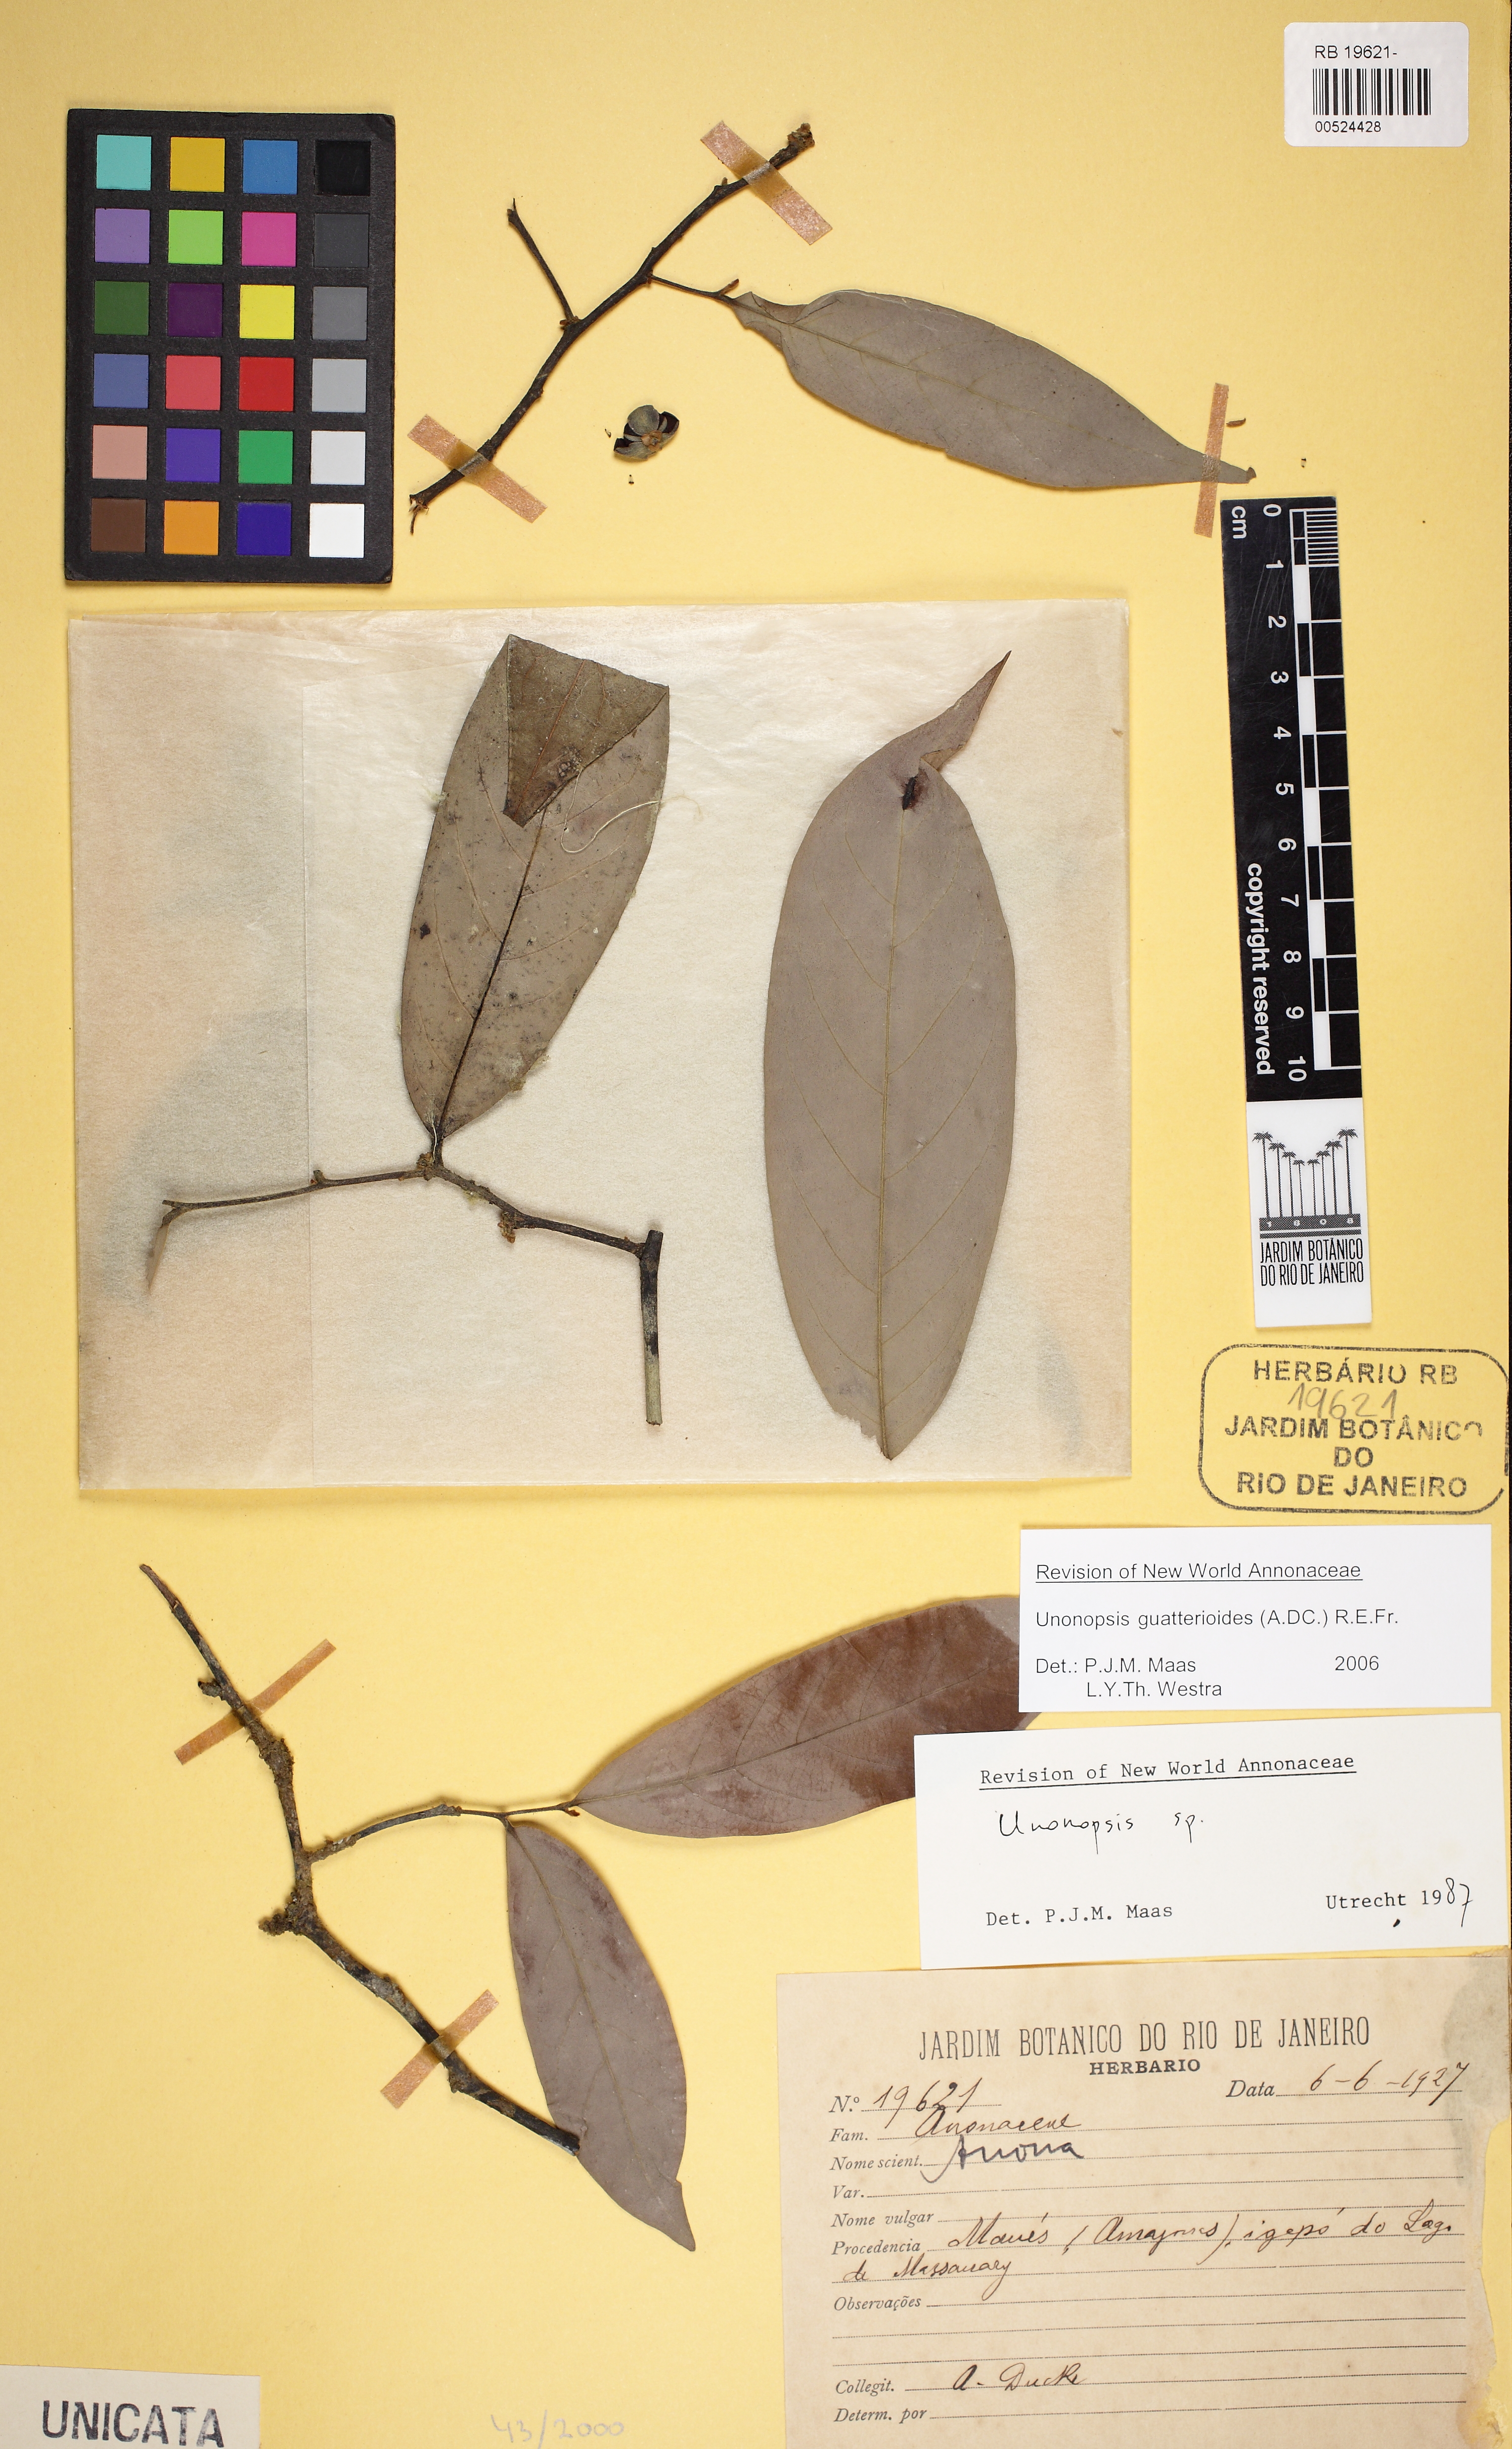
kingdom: Plantae
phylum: Tracheophyta
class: Magnoliopsida
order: Magnoliales
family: Annonaceae
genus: Unonopsis
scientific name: Unonopsis guatterioides
